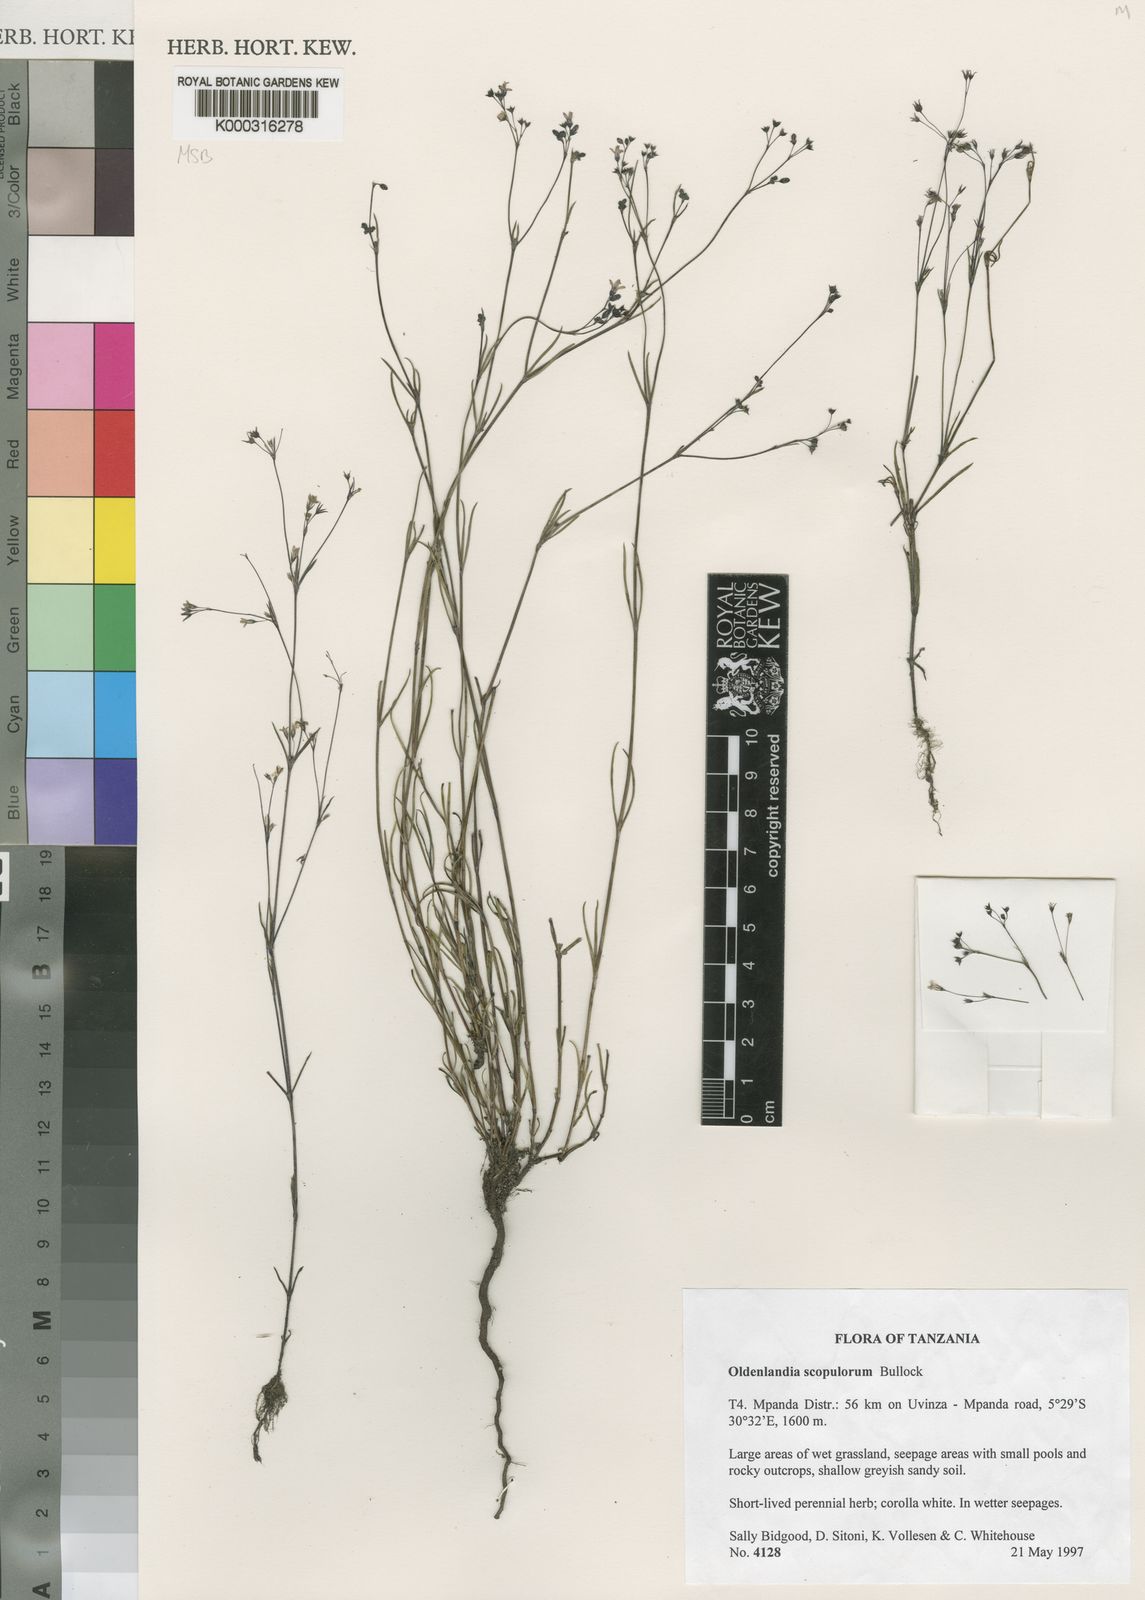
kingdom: Plantae
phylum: Tracheophyta
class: Magnoliopsida
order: Gentianales
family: Rubiaceae
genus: Oldenlandia
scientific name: Oldenlandia scopulorum
